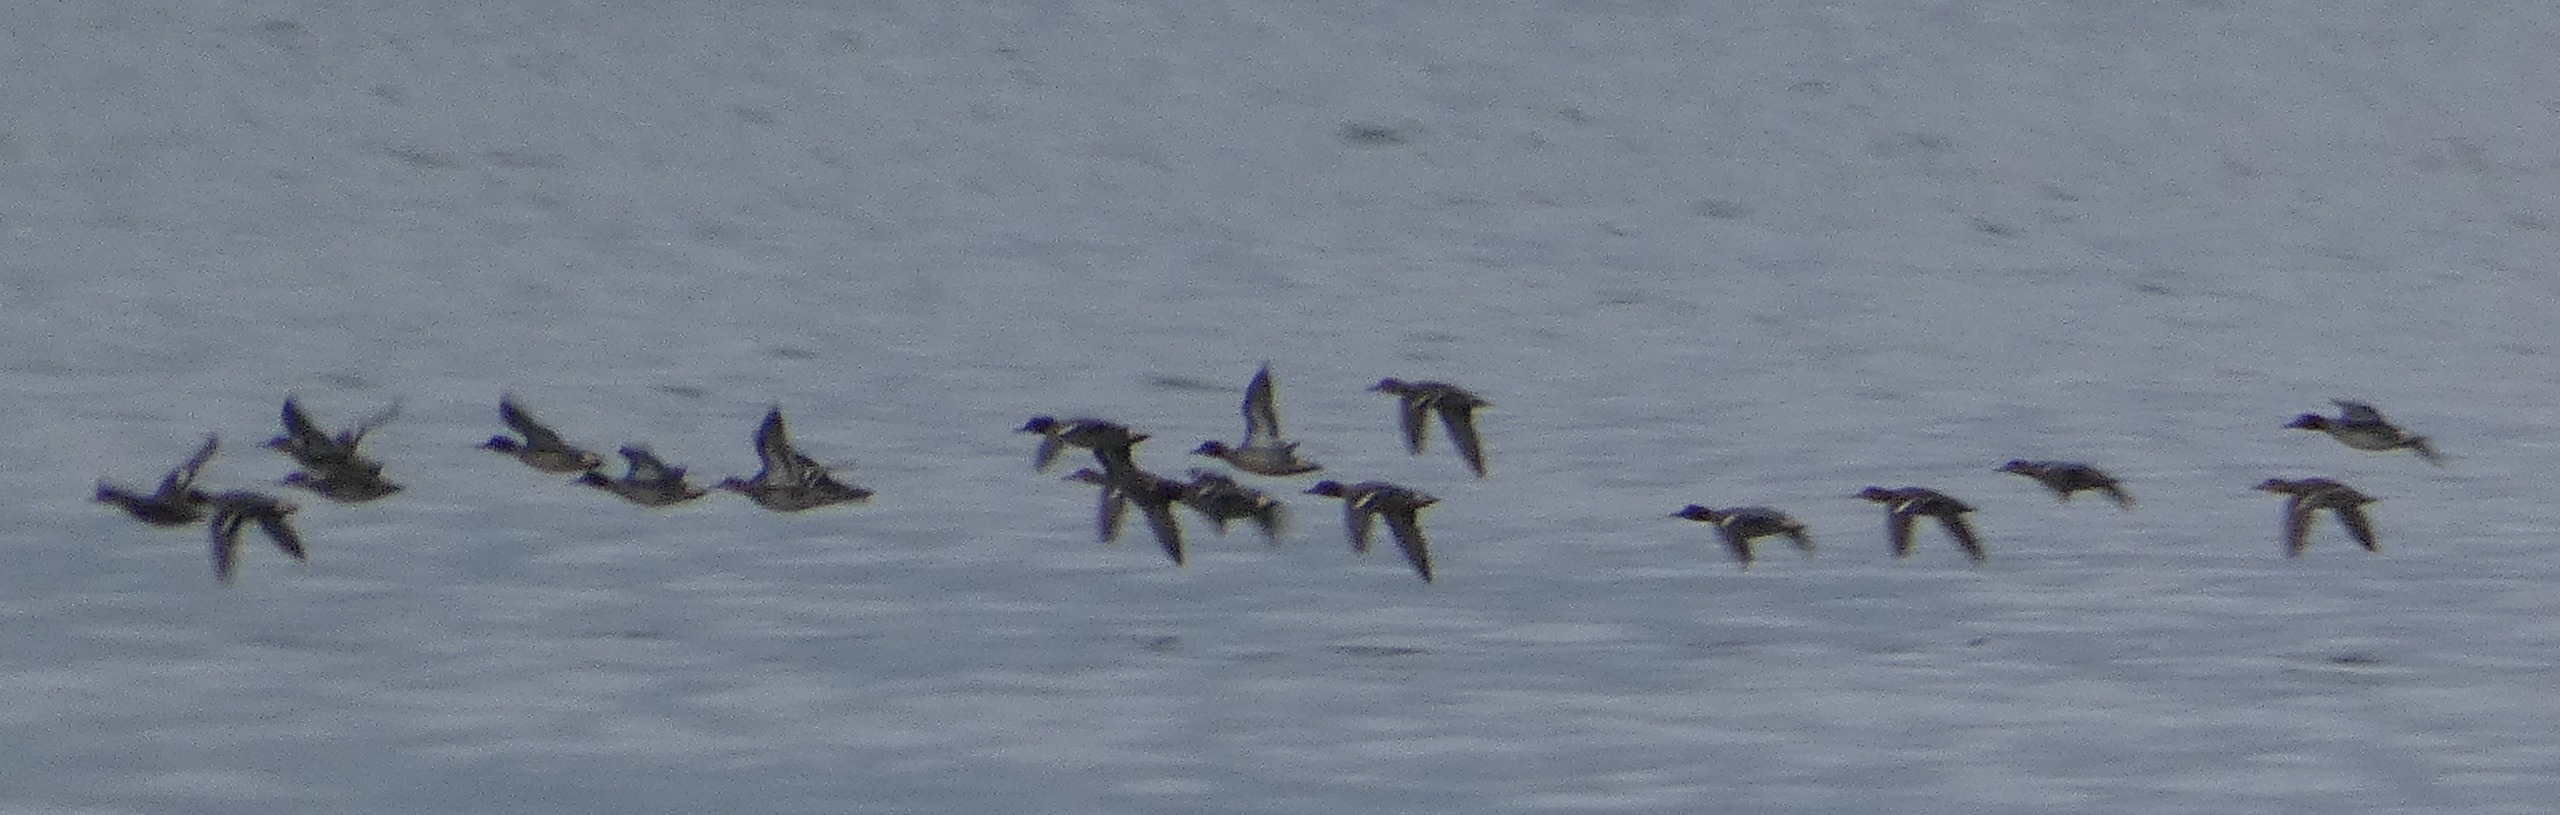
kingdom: Animalia
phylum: Chordata
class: Aves
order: Anseriformes
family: Anatidae
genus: Anas
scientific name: Anas crecca
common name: Krikand
